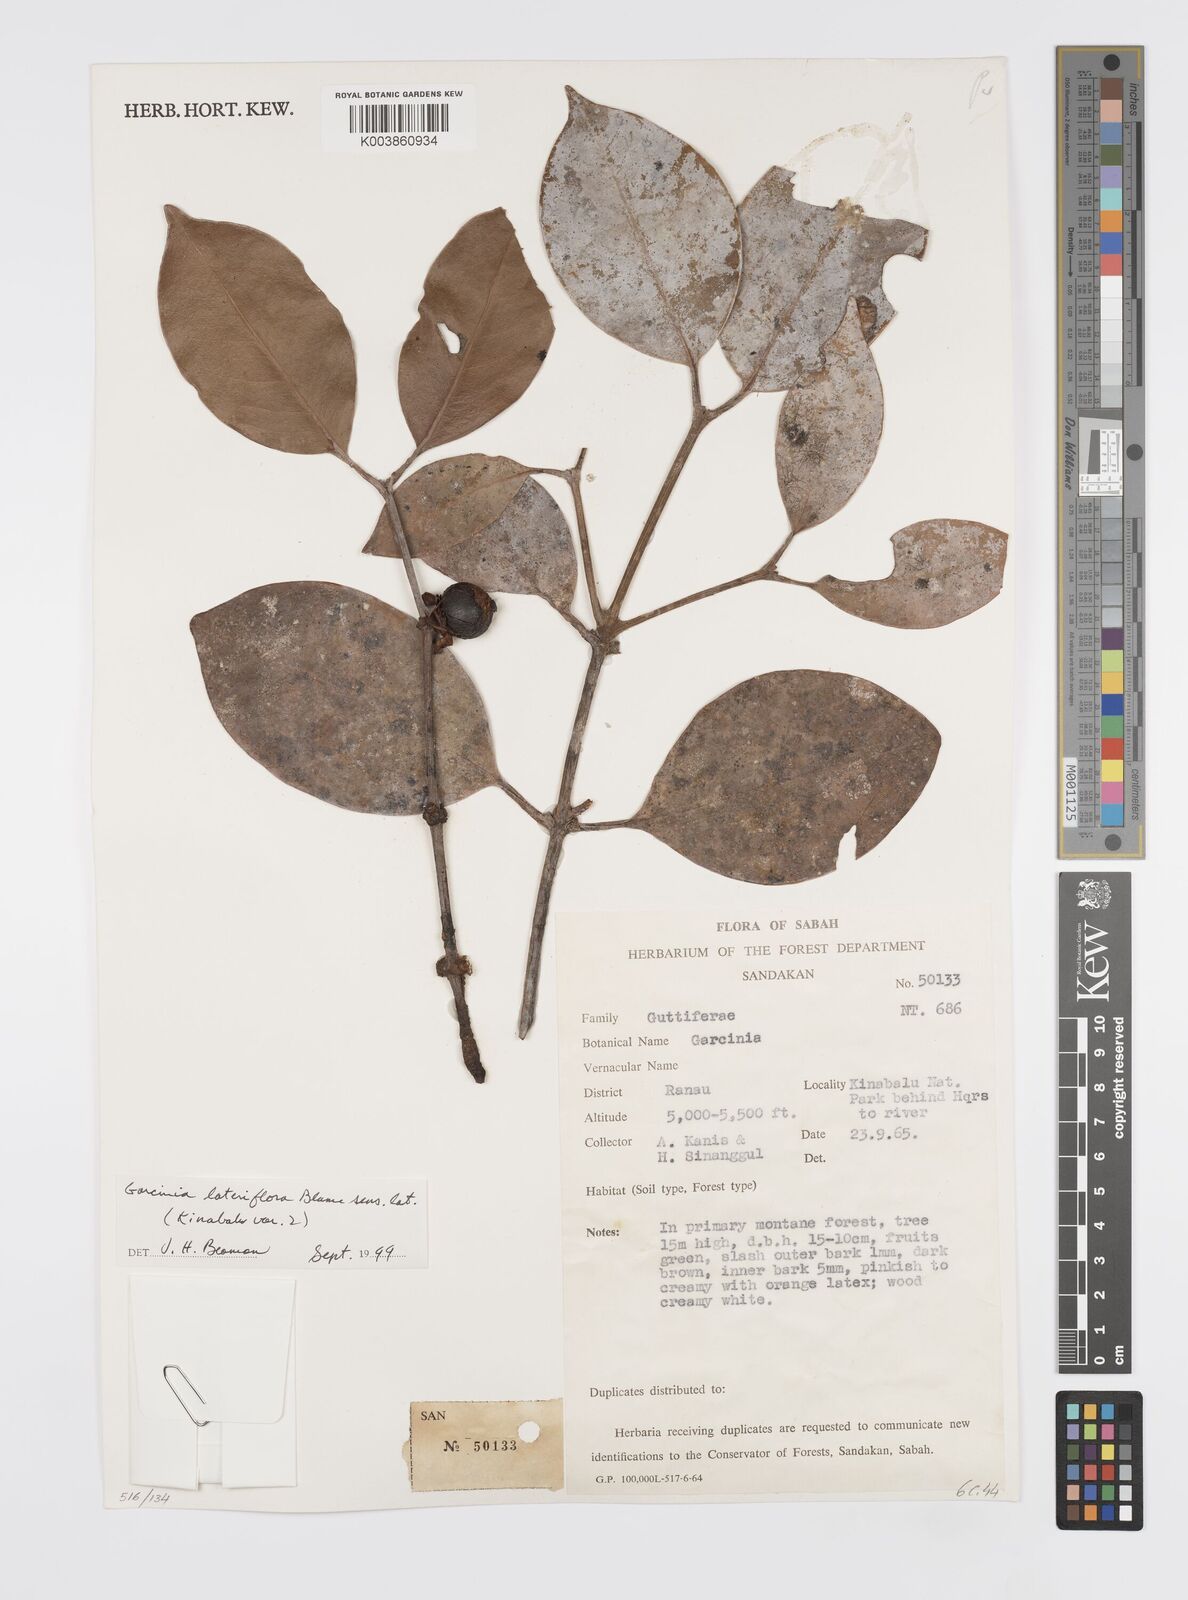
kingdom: Plantae
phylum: Tracheophyta
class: Magnoliopsida
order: Malpighiales
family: Clusiaceae
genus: Garcinia
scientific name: Garcinia lateriflora
